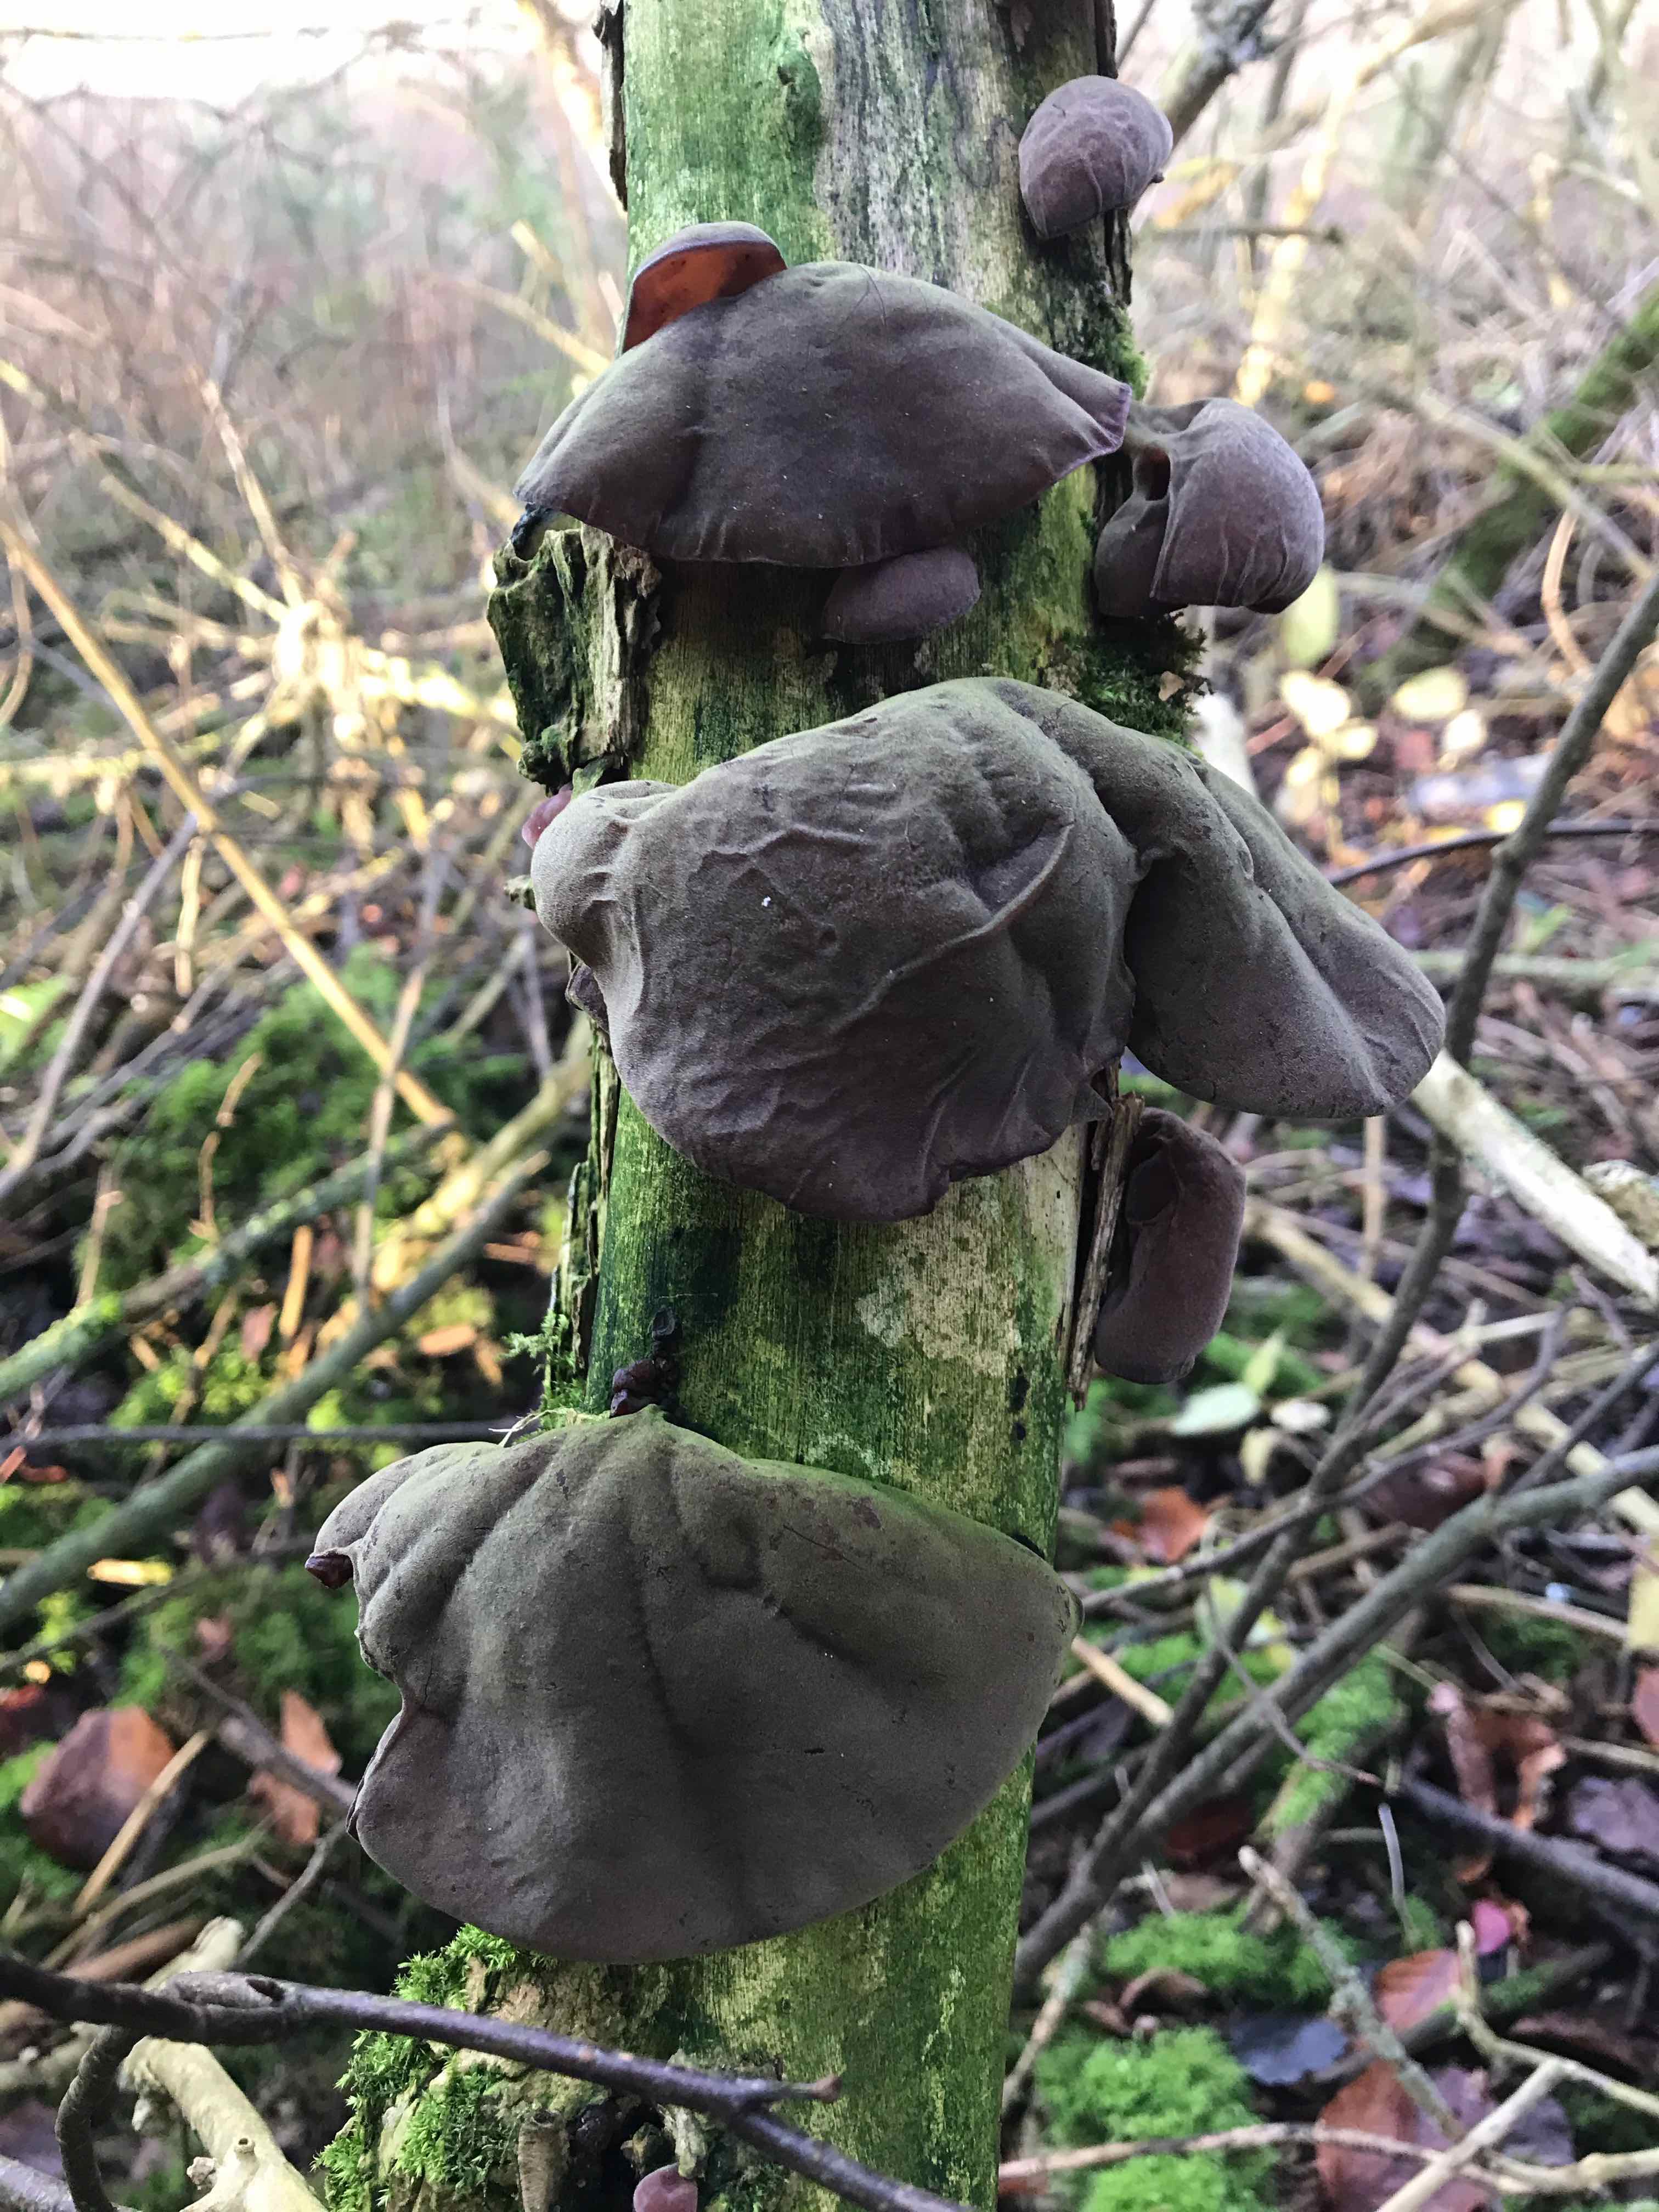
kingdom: Fungi
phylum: Basidiomycota
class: Agaricomycetes
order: Auriculariales
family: Auriculariaceae
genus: Auricularia
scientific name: Auricularia auricula-judae
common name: almindelig judasøre
